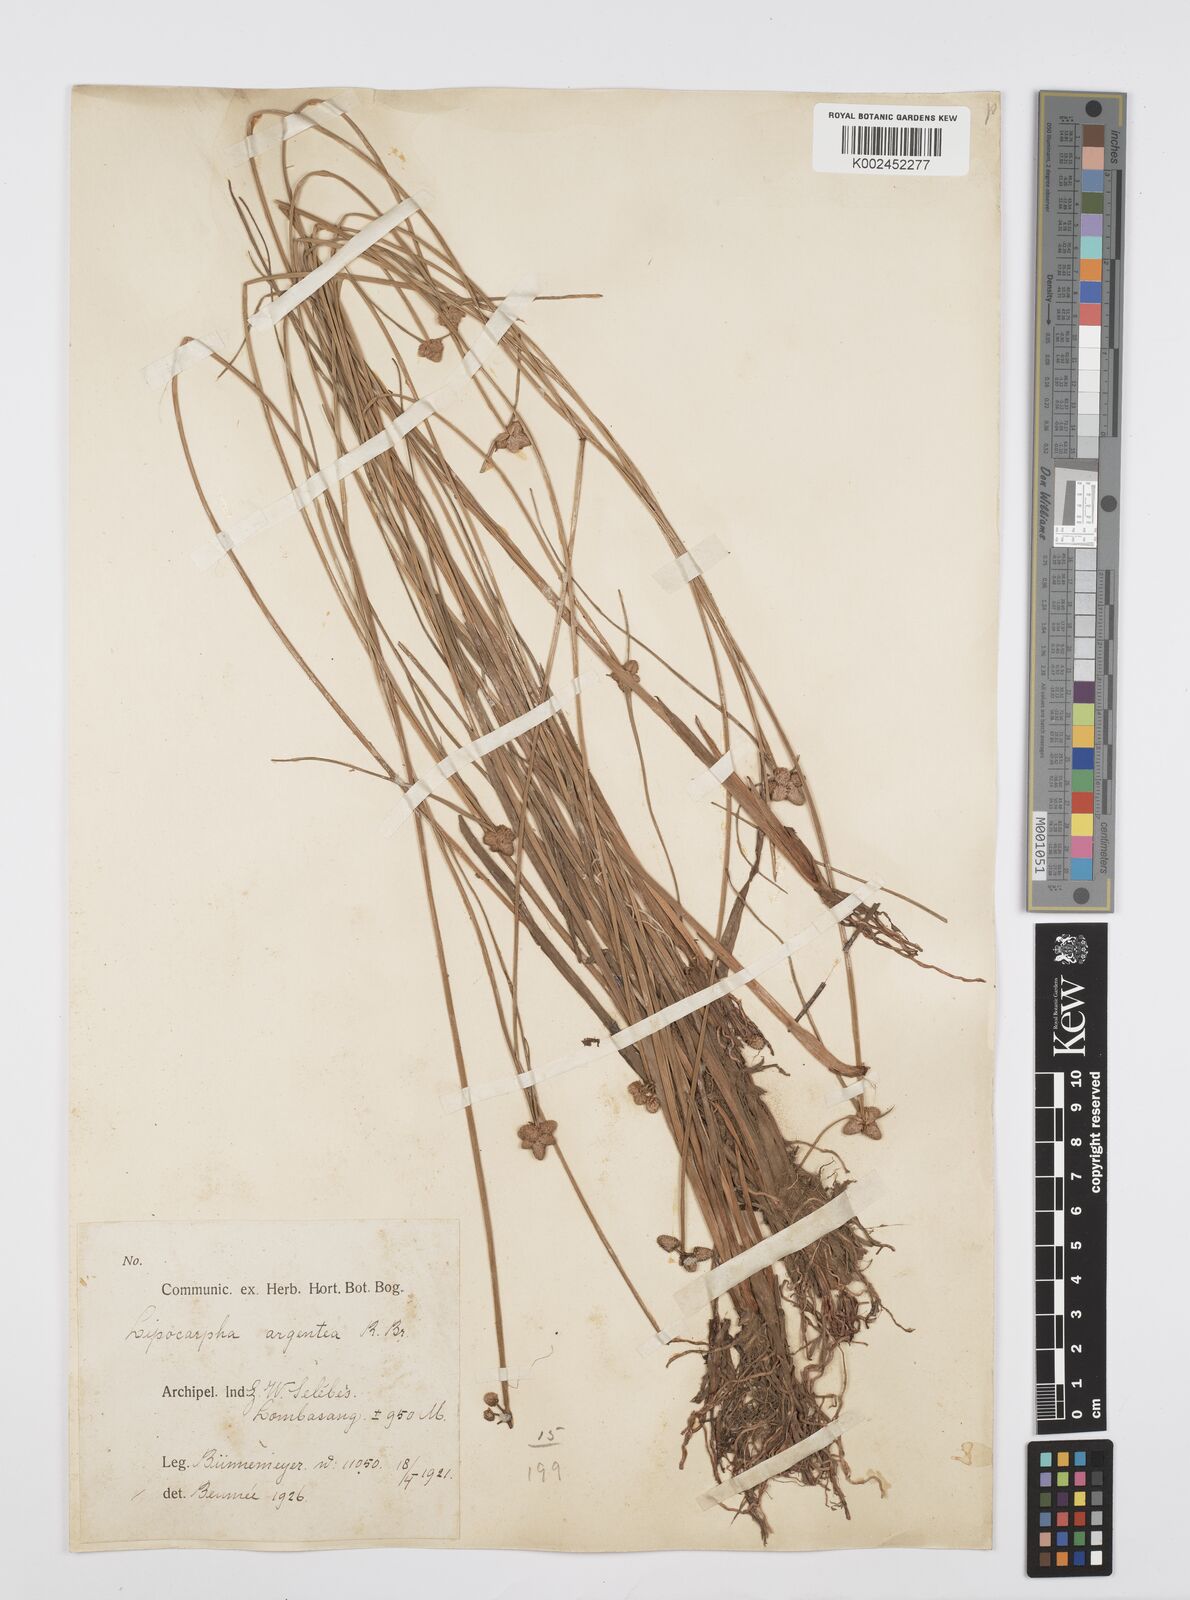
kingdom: Plantae
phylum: Tracheophyta
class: Liliopsida
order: Poales
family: Cyperaceae
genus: Cyperus
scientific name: Cyperus
